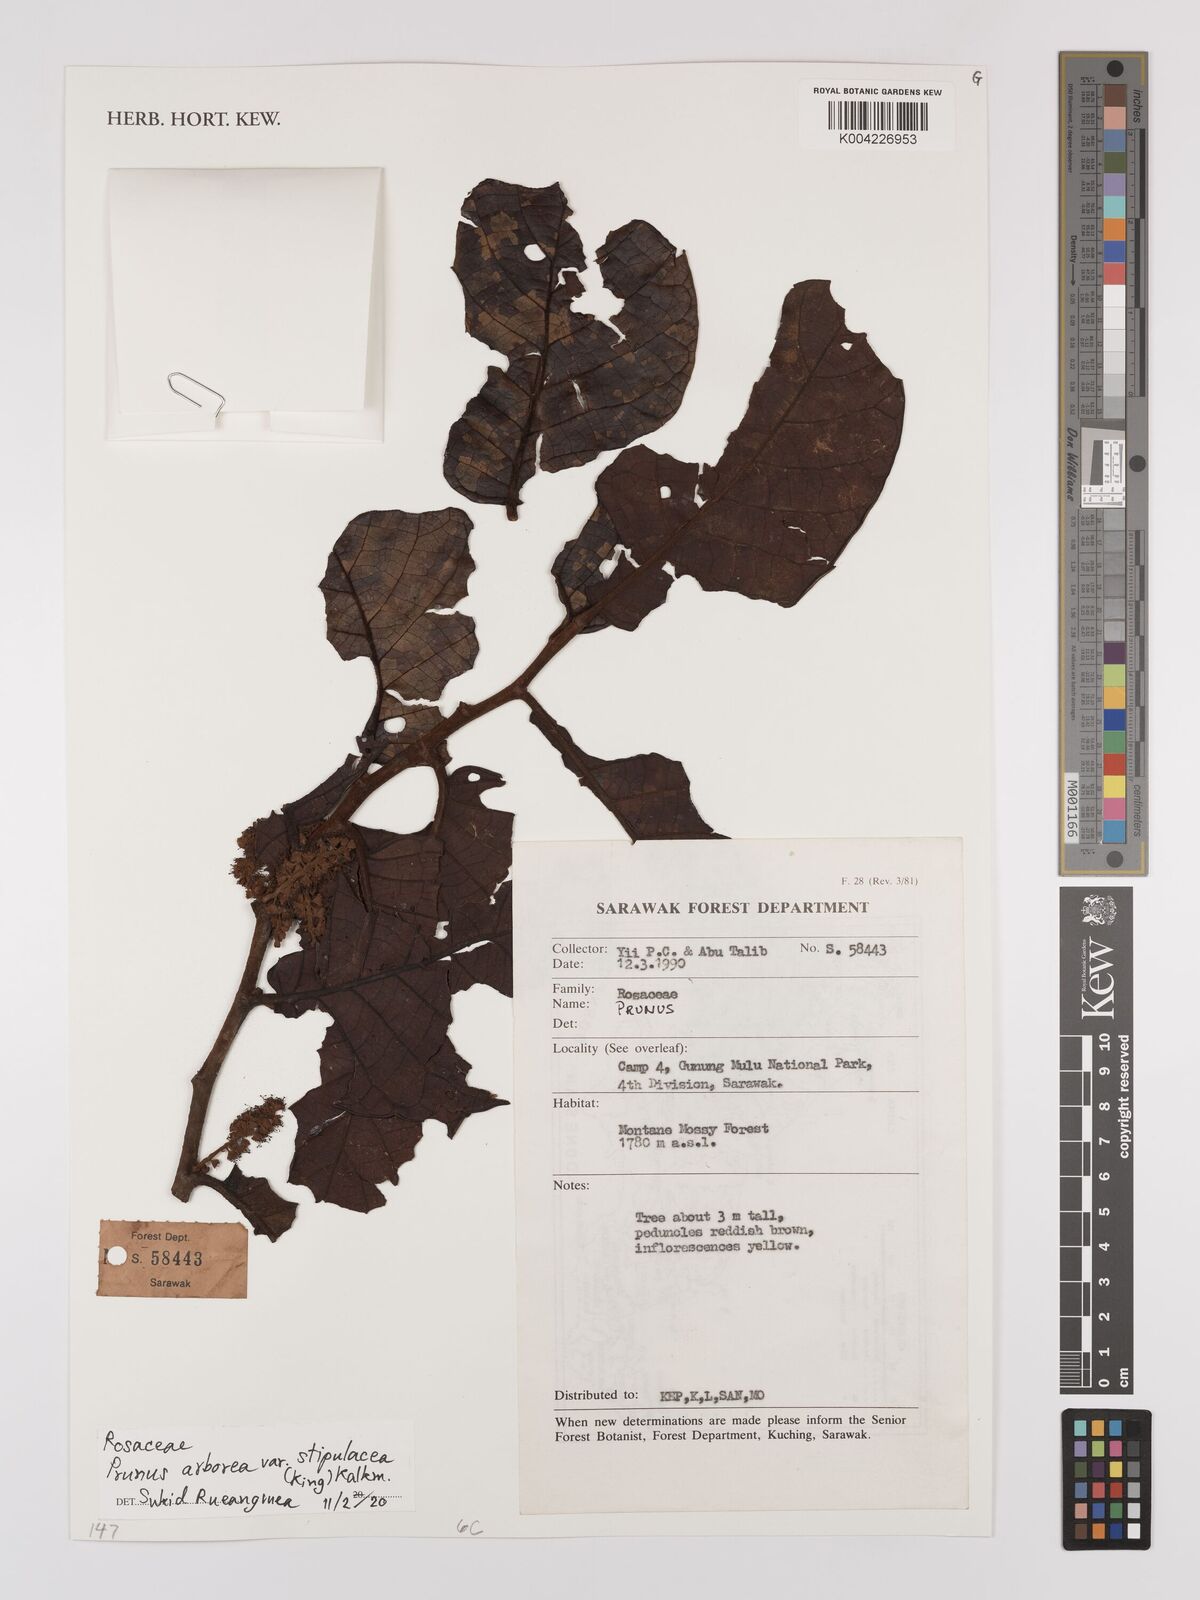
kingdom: Plantae
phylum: Tracheophyta
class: Magnoliopsida
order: Rosales
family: Rosaceae
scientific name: Rosaceae
